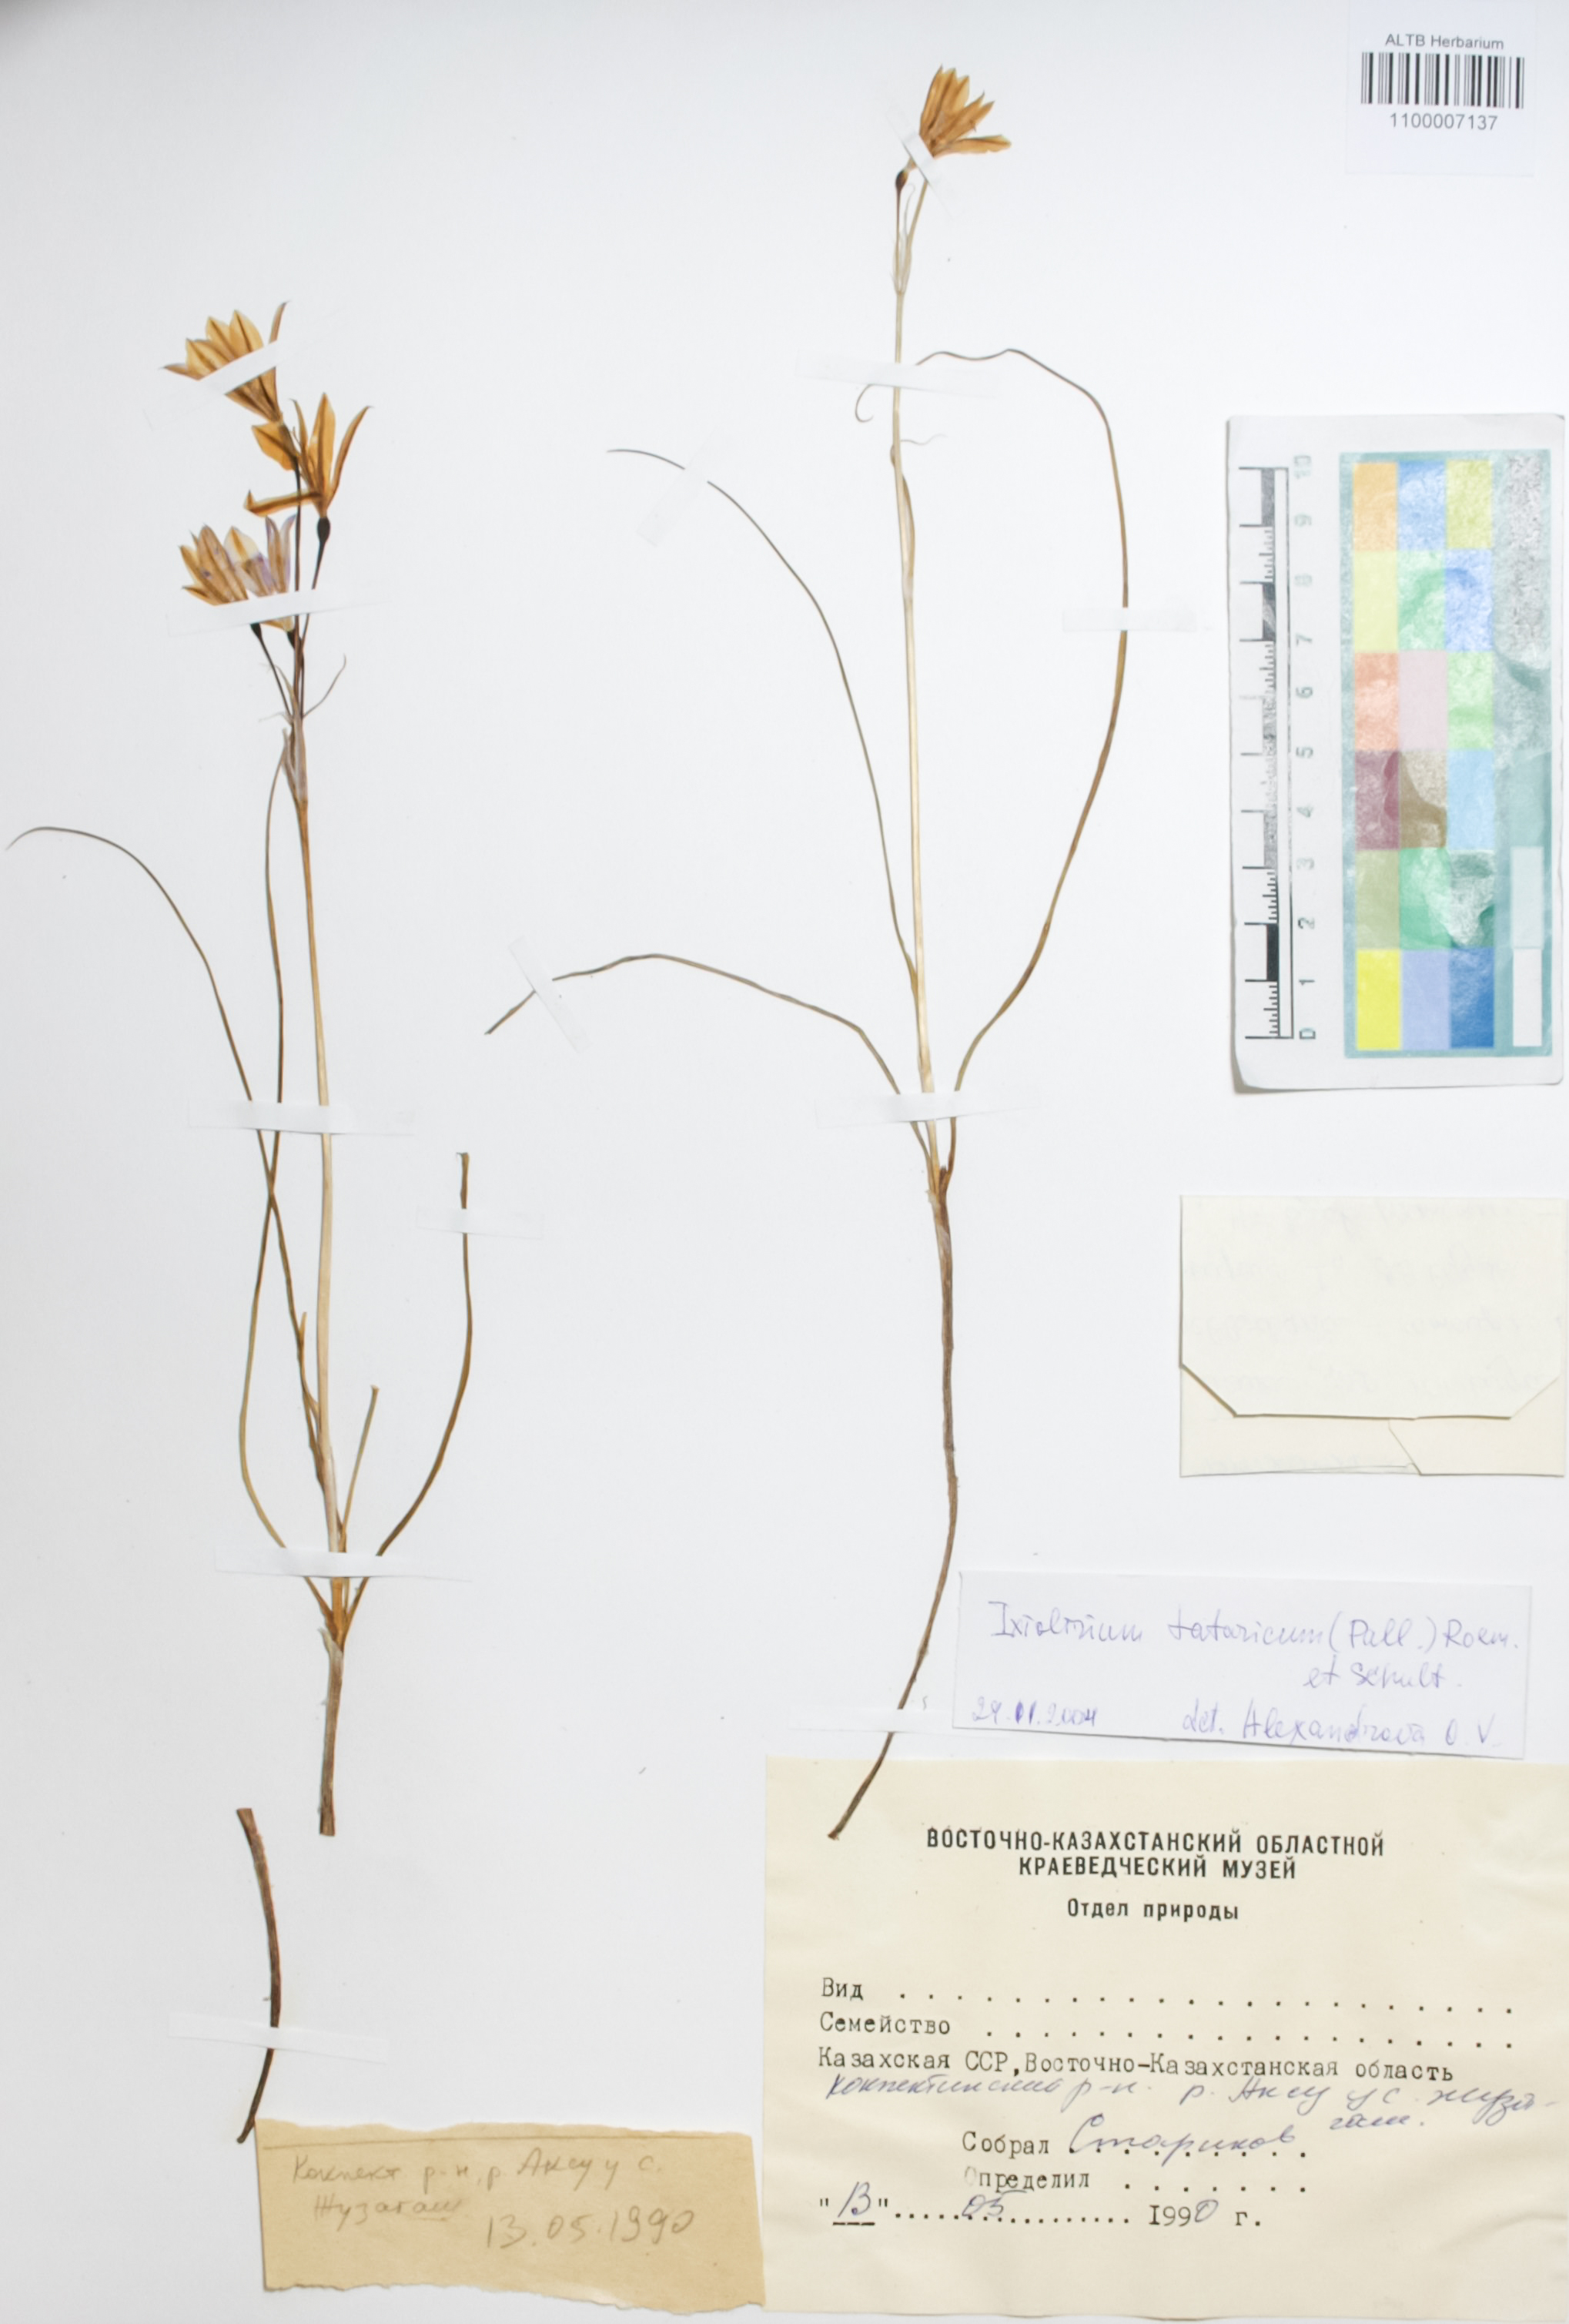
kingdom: Plantae
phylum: Tracheophyta
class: Liliopsida
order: Asparagales
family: Ixioliriaceae
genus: Ixiolirion
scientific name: Ixiolirion tataricum
